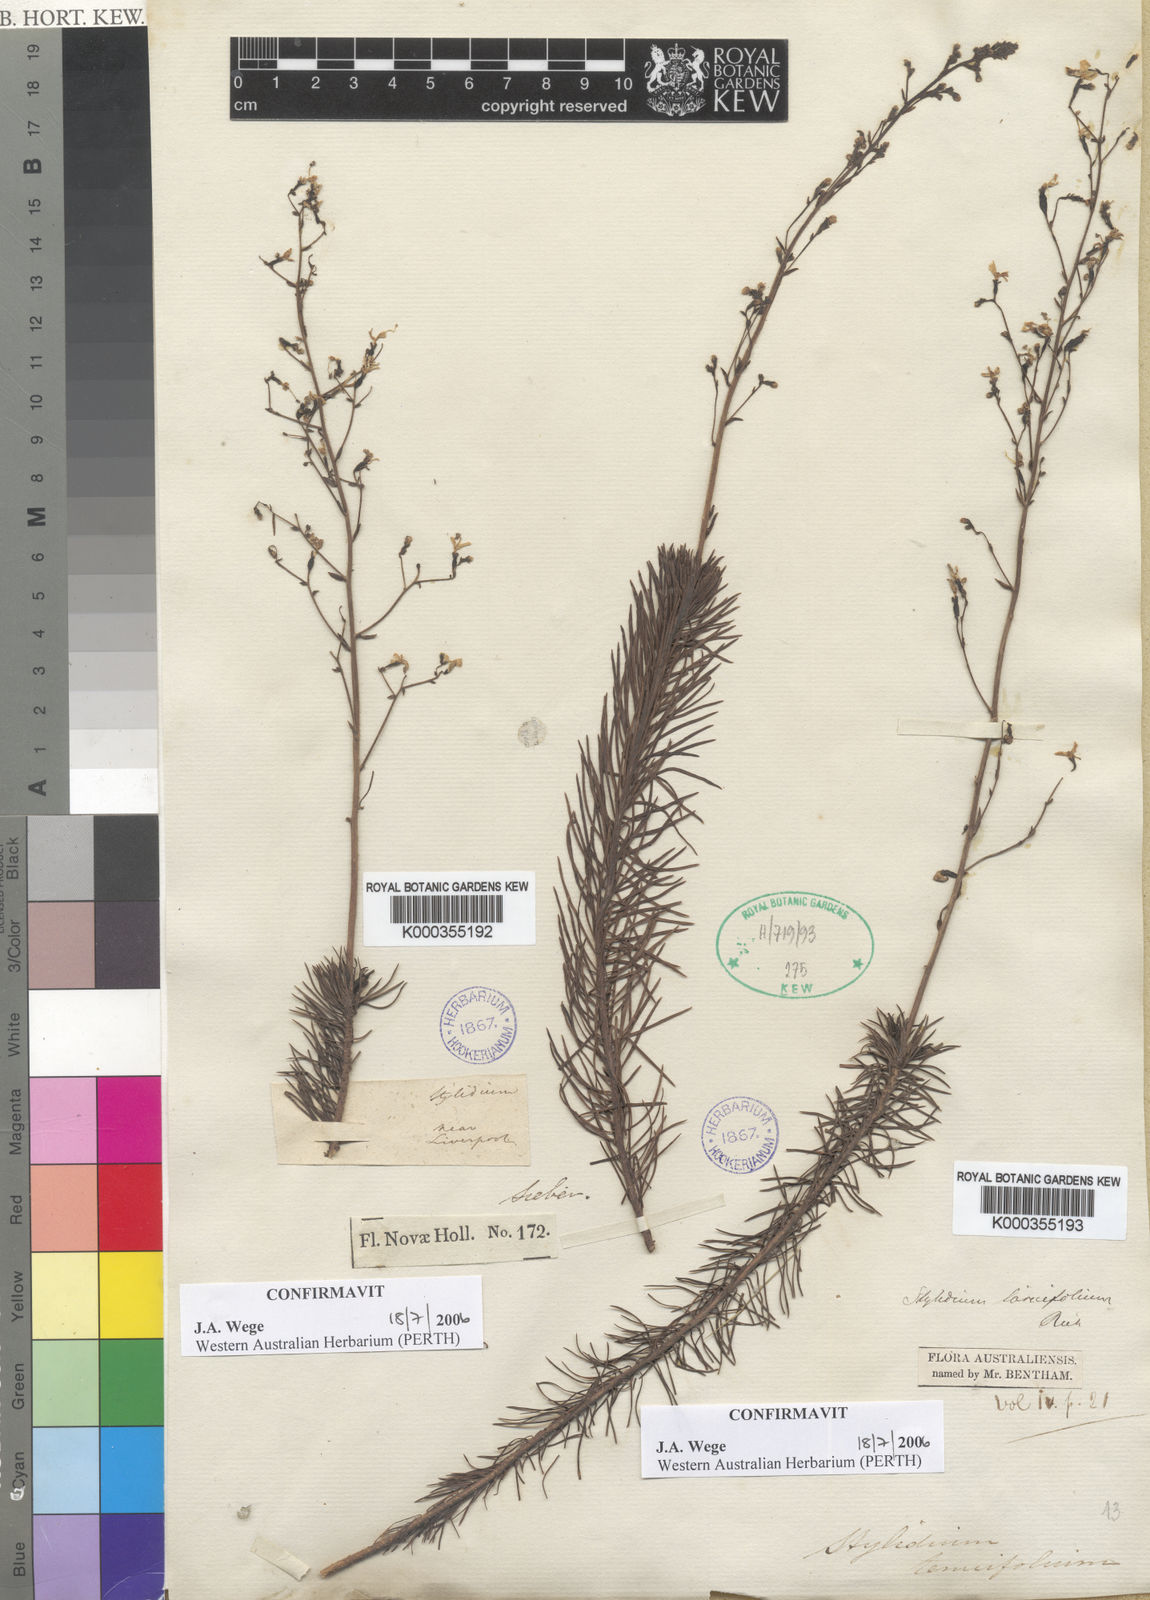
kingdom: Plantae
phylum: Tracheophyta
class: Magnoliopsida
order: Asterales
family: Stylidiaceae
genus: Stylidium
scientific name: Stylidium laricifolium
